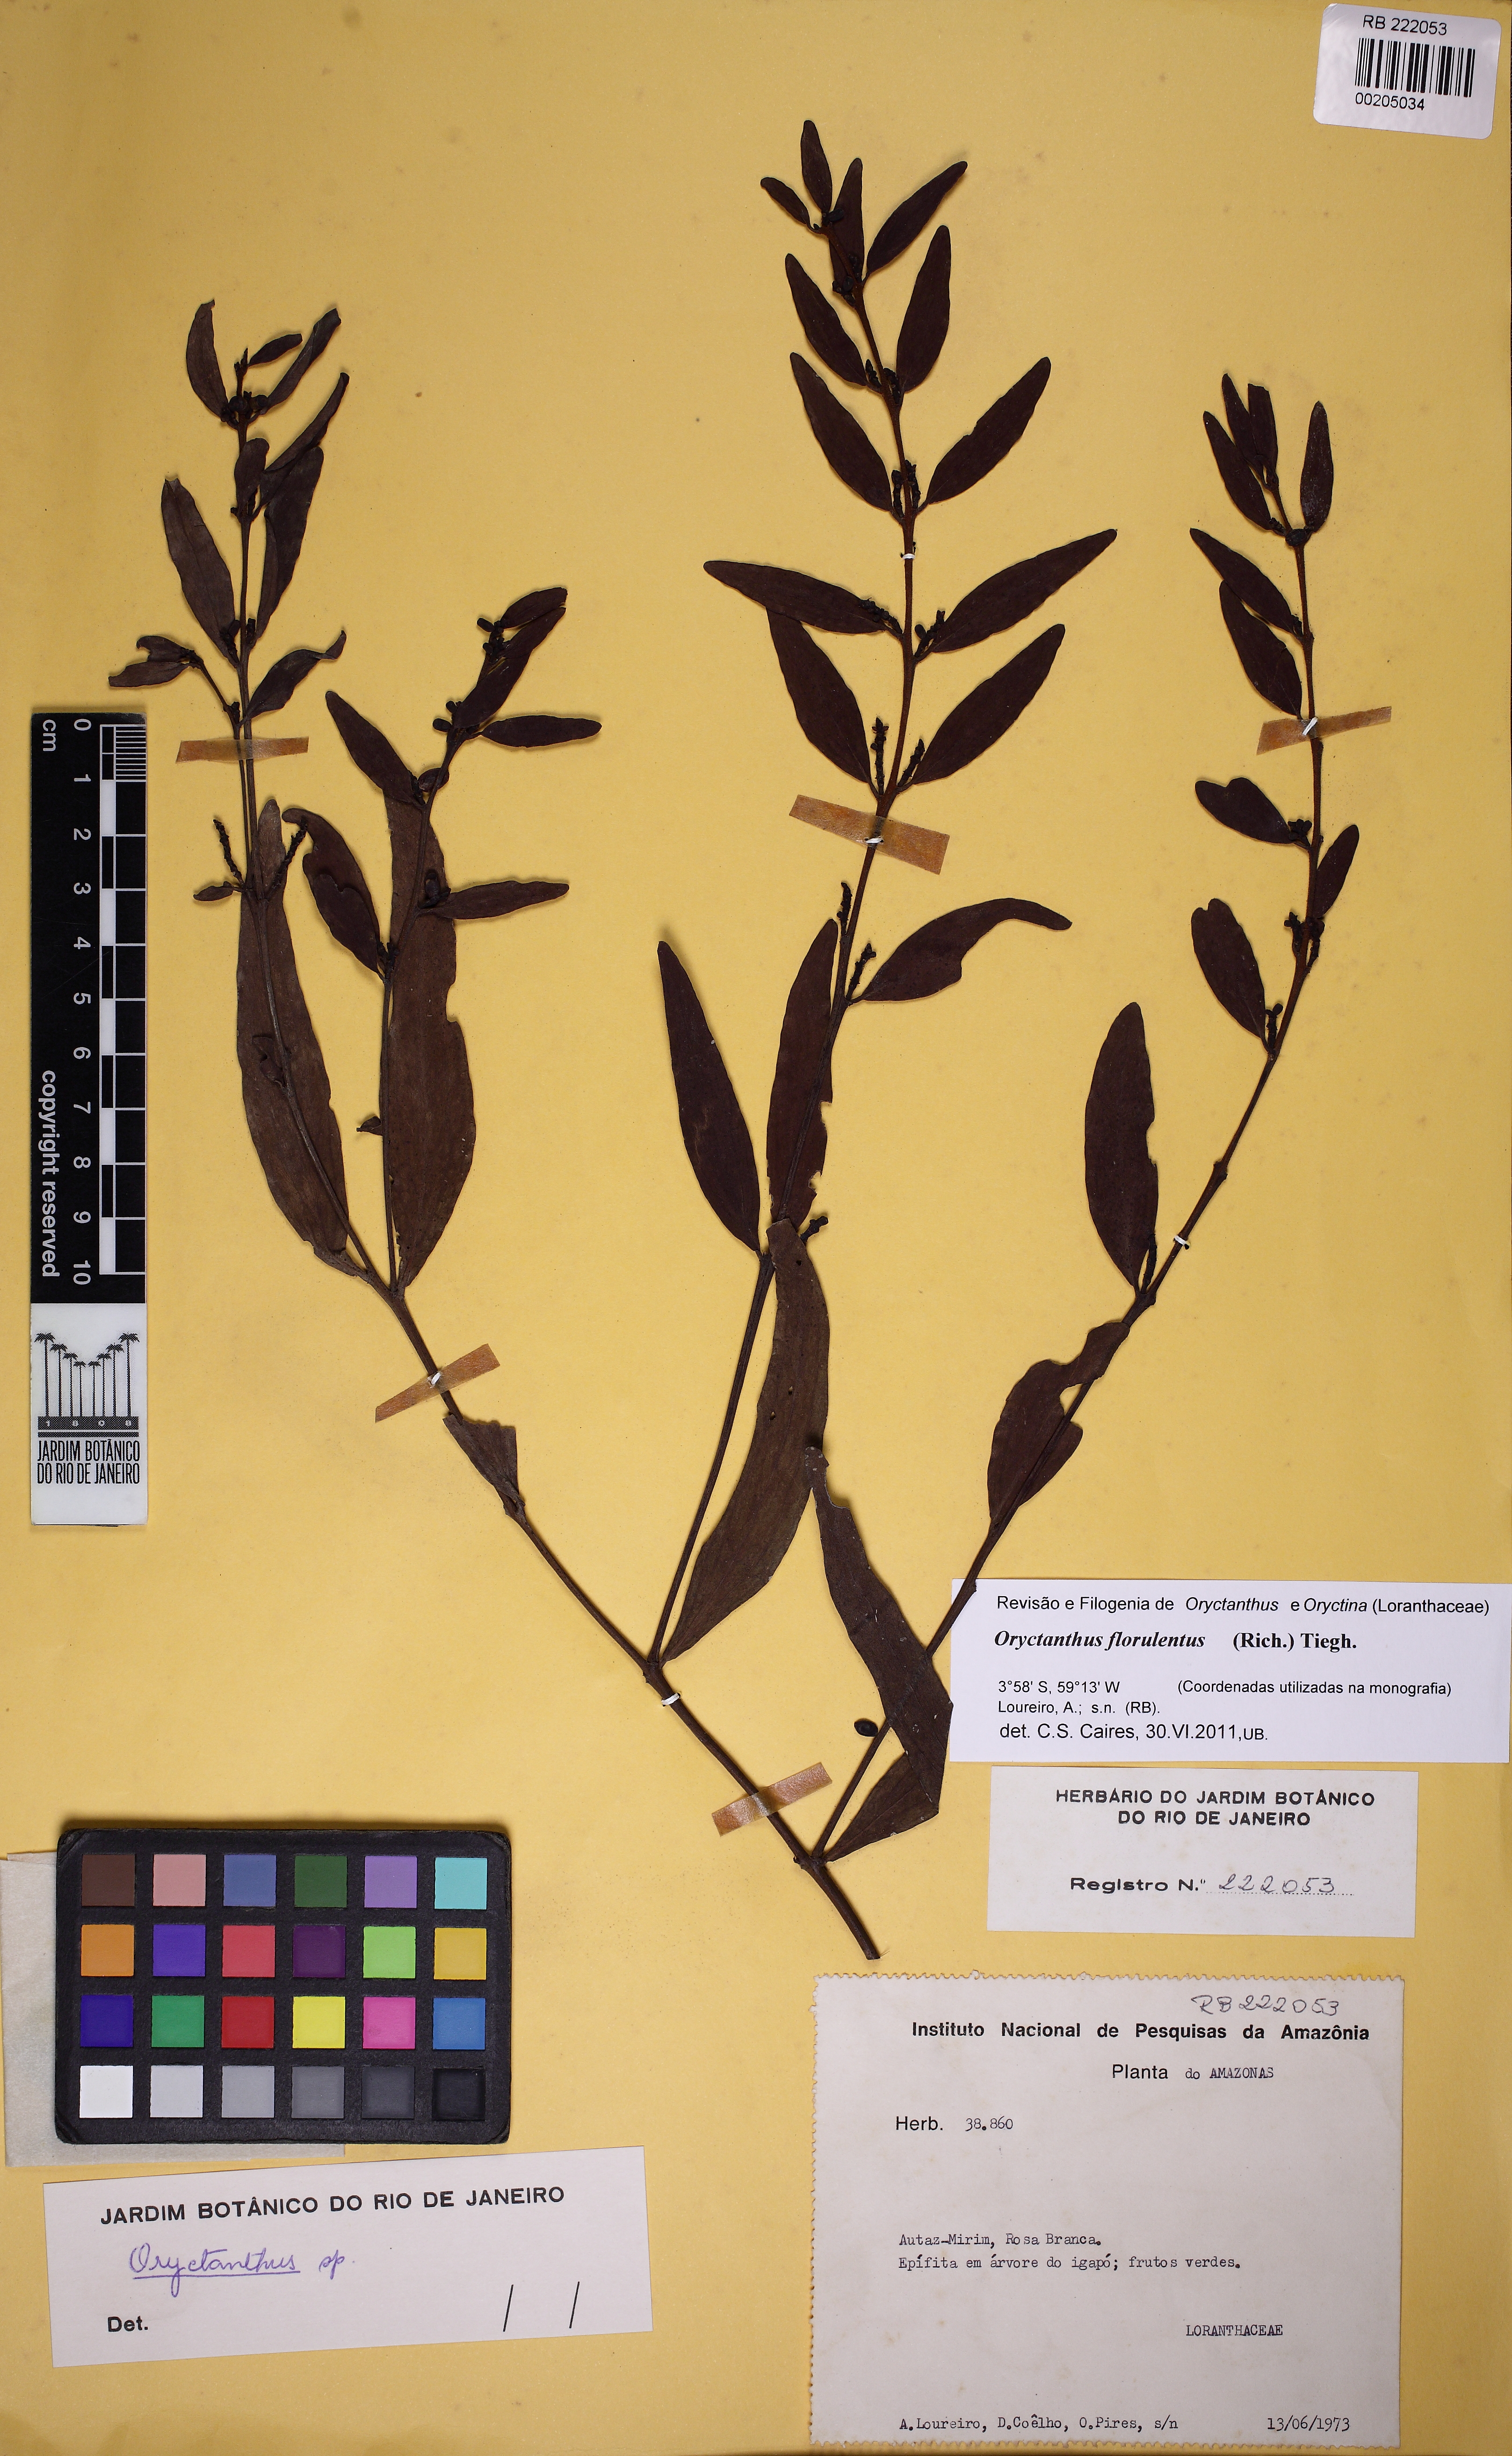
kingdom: Plantae
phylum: Tracheophyta
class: Magnoliopsida
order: Santalales
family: Loranthaceae
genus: Oryctanthus
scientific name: Oryctanthus florulentus
